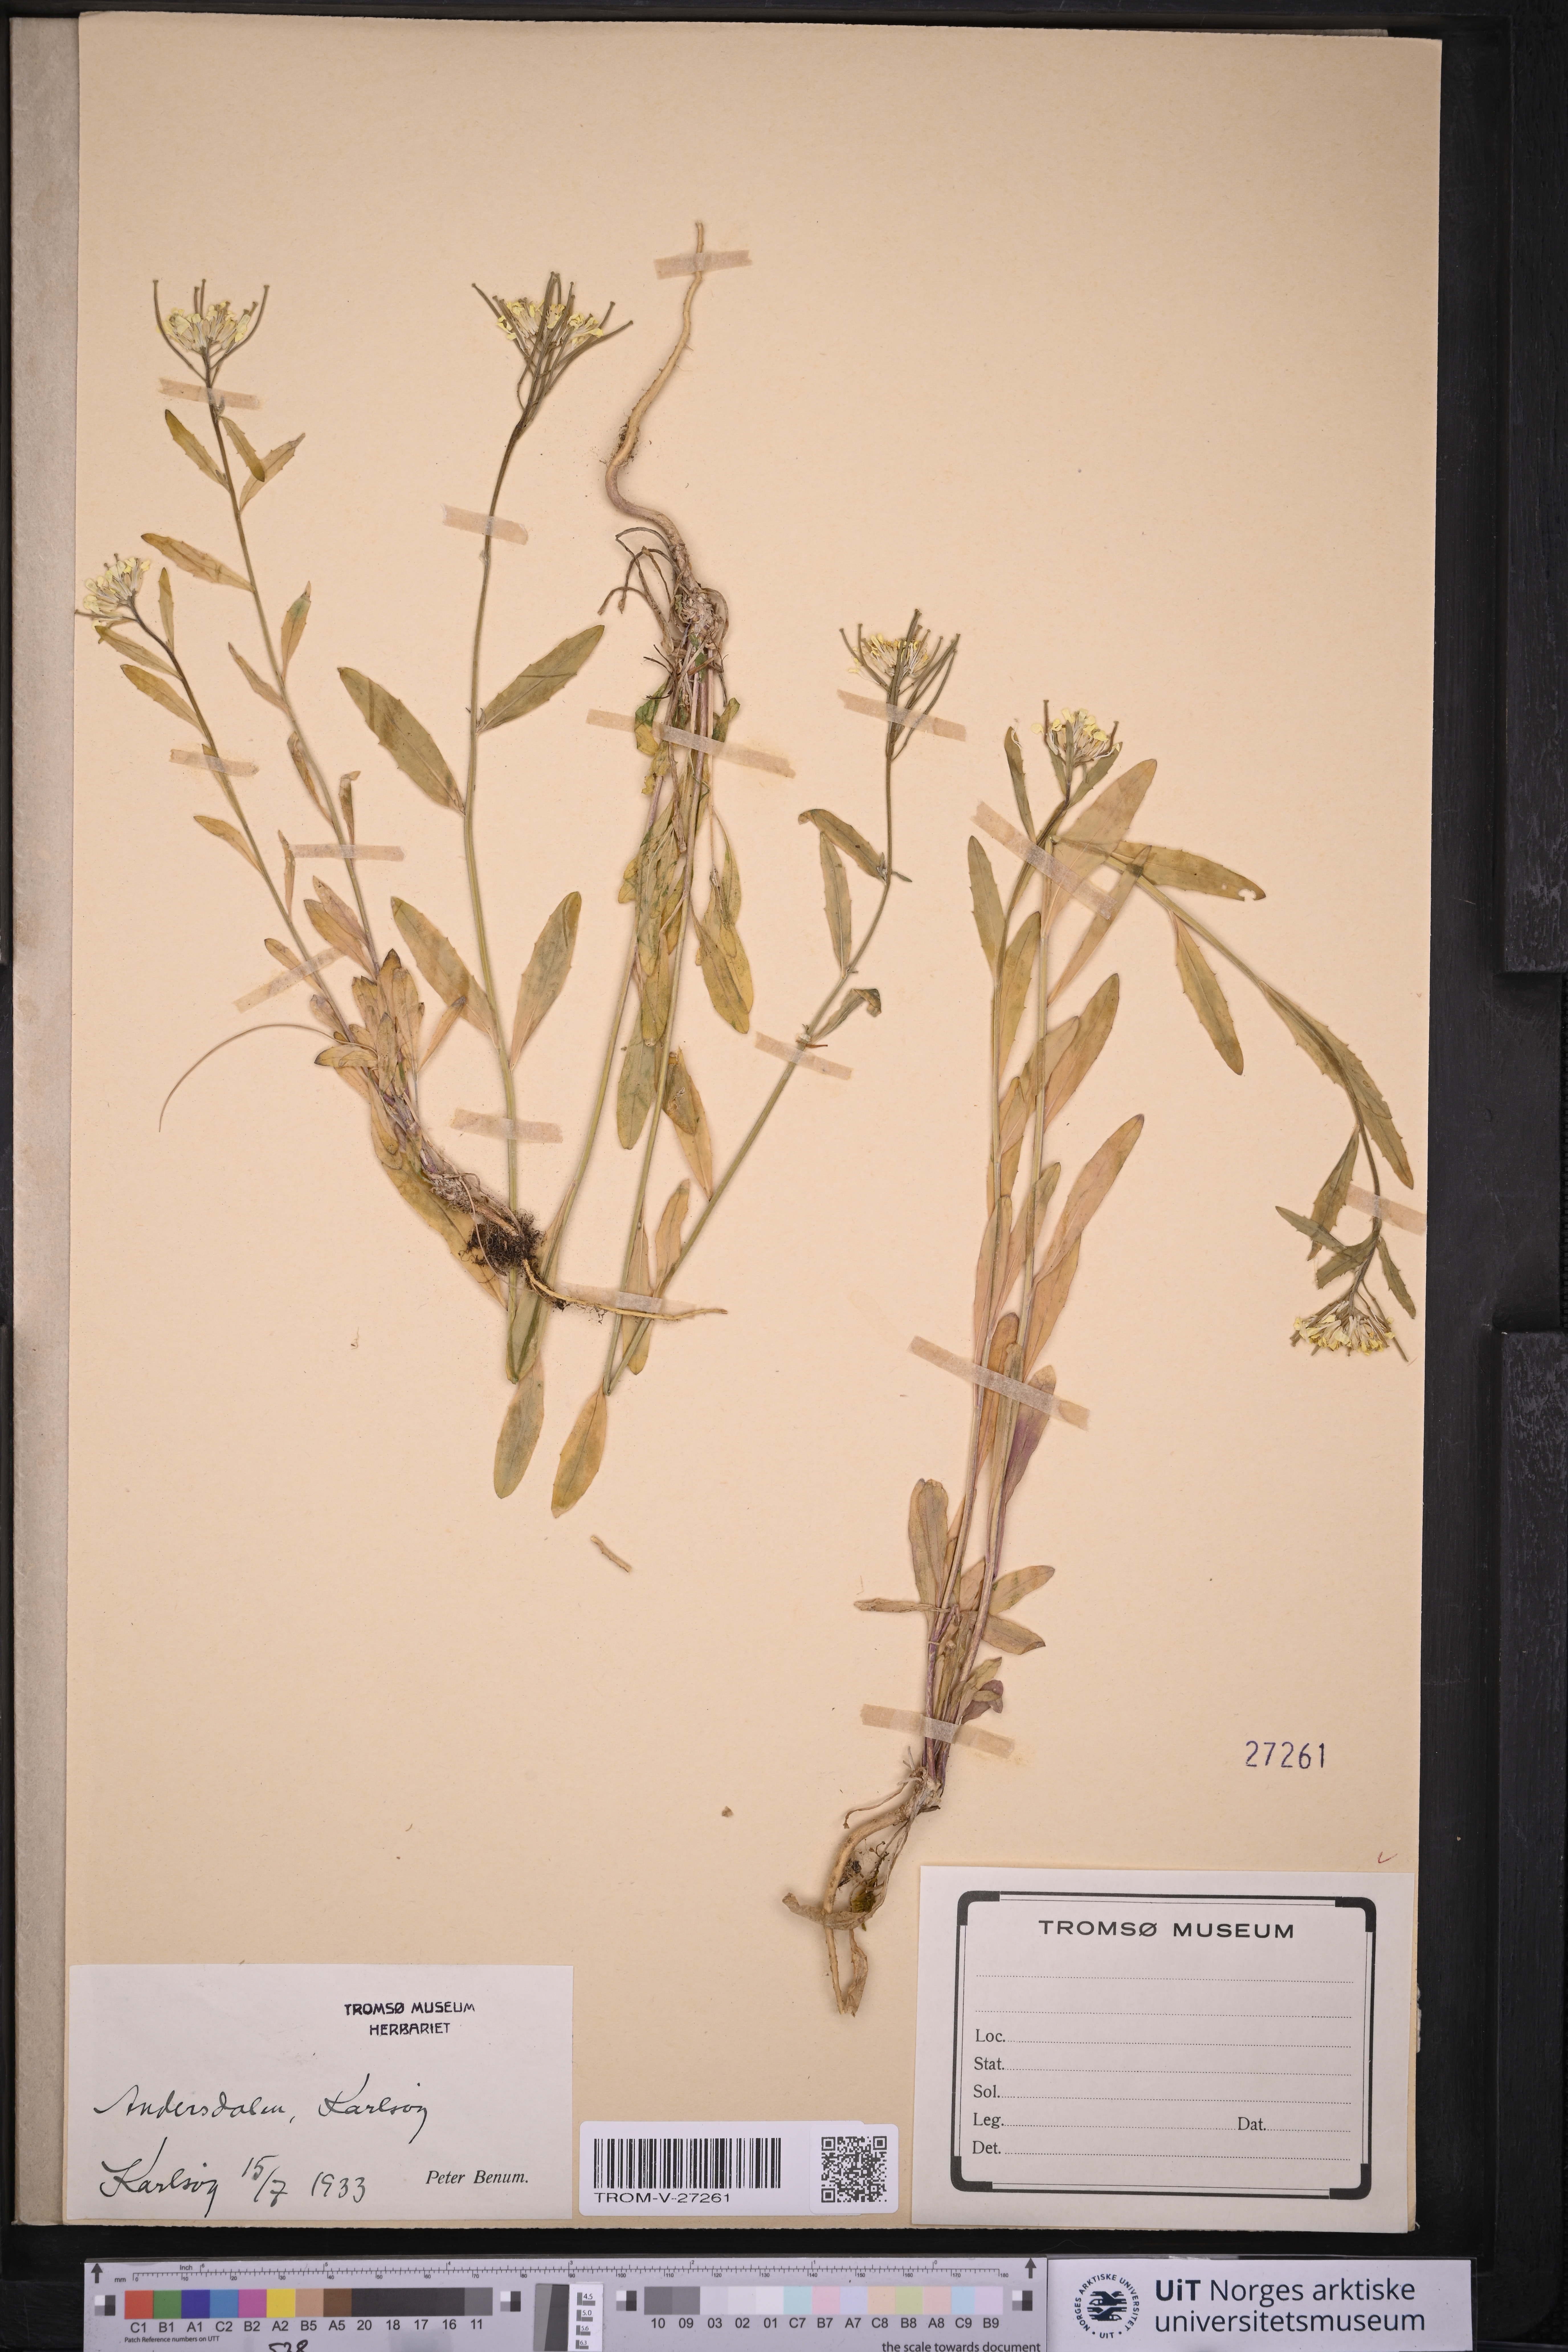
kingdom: Plantae
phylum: Tracheophyta
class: Magnoliopsida
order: Brassicales
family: Brassicaceae
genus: Erysimum
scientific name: Erysimum virgatum
